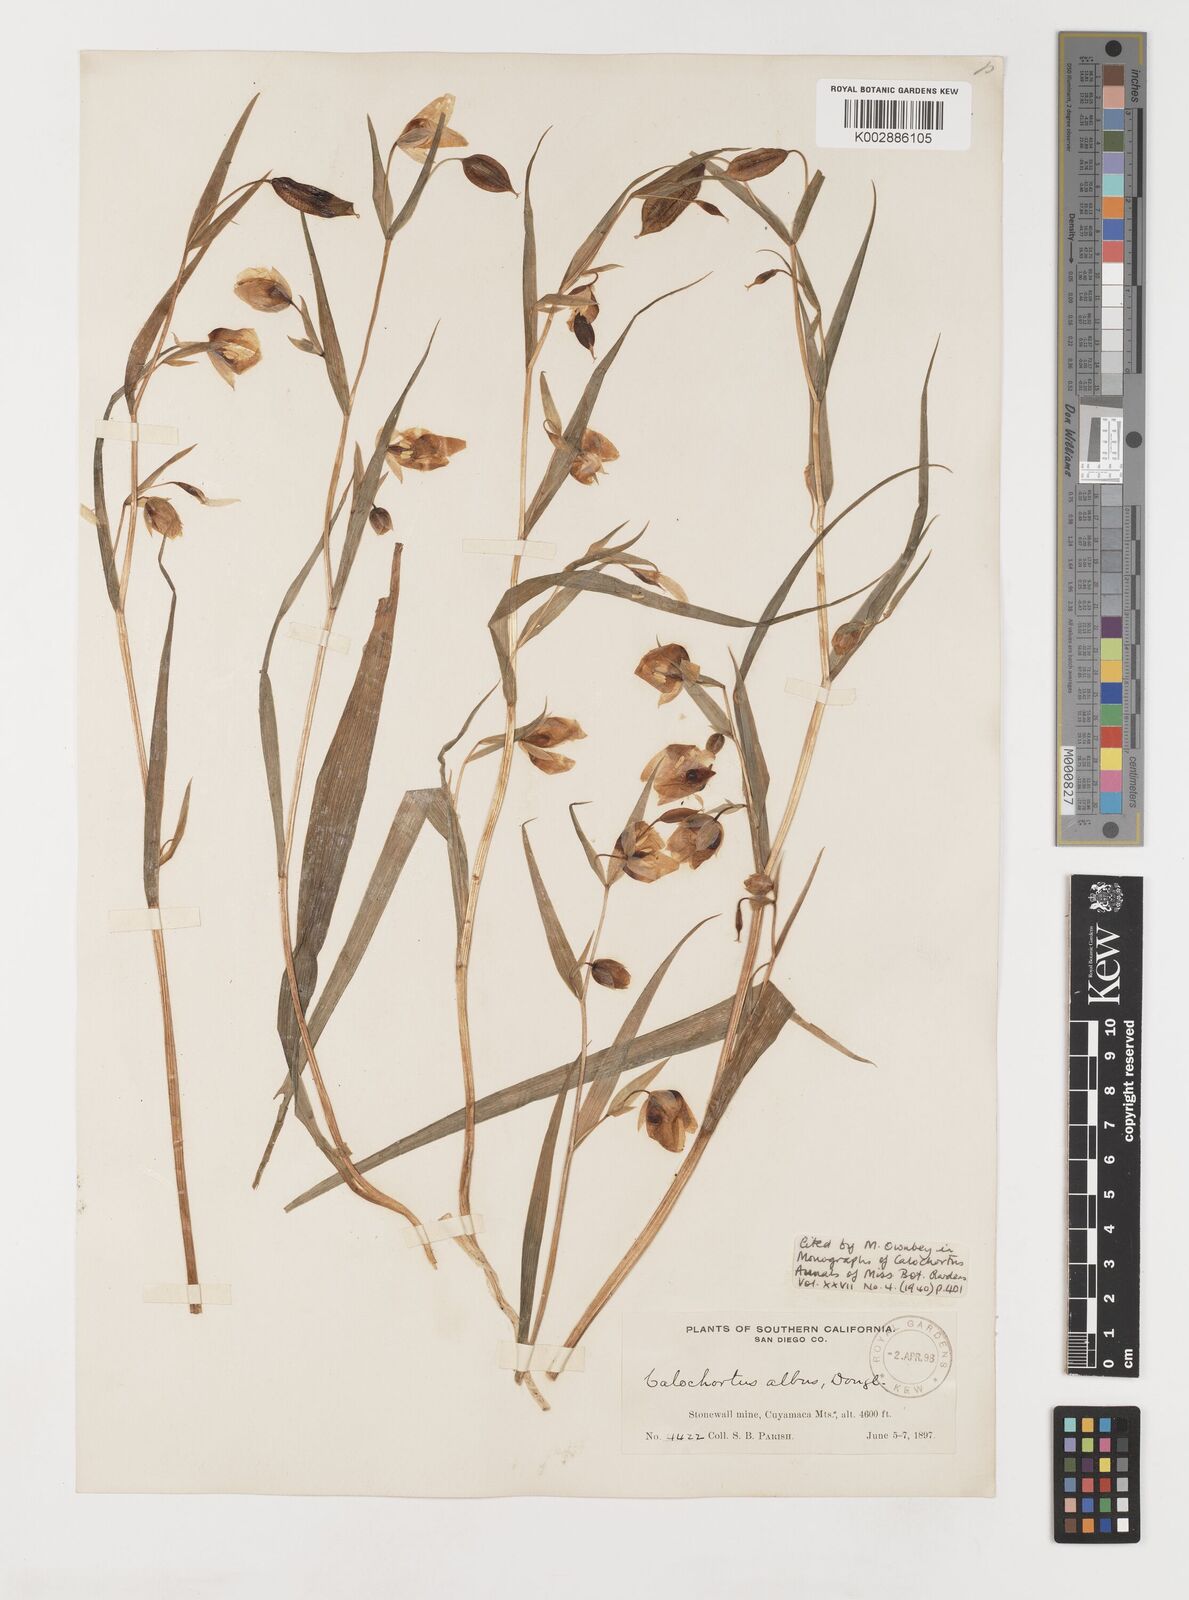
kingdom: Plantae
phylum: Tracheophyta
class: Liliopsida
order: Liliales
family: Liliaceae
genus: Calochortus
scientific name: Calochortus albus
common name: Fairy-lantern
